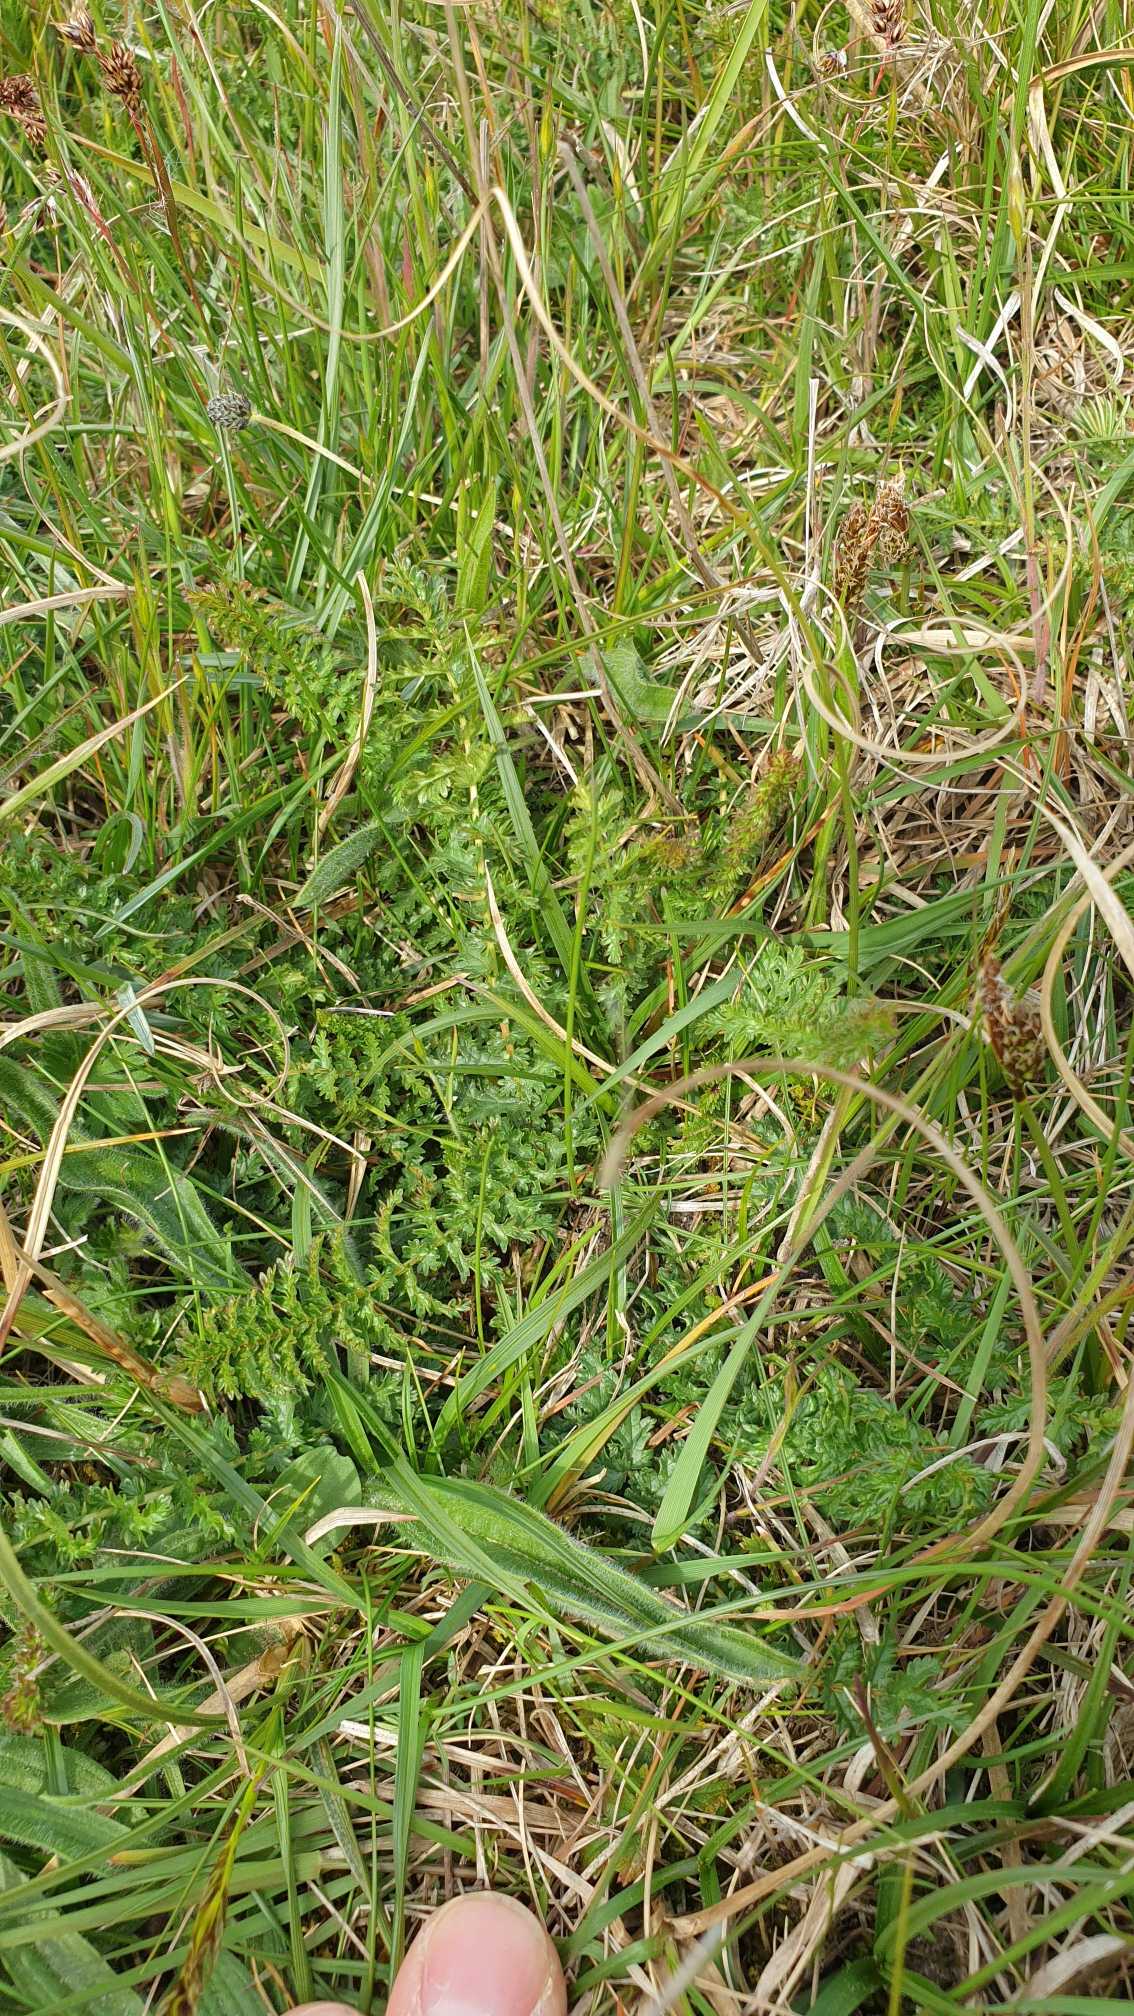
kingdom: Plantae
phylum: Tracheophyta
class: Magnoliopsida
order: Rosales
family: Rosaceae
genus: Filipendula
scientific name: Filipendula vulgaris
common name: Knoldet mjødurt
